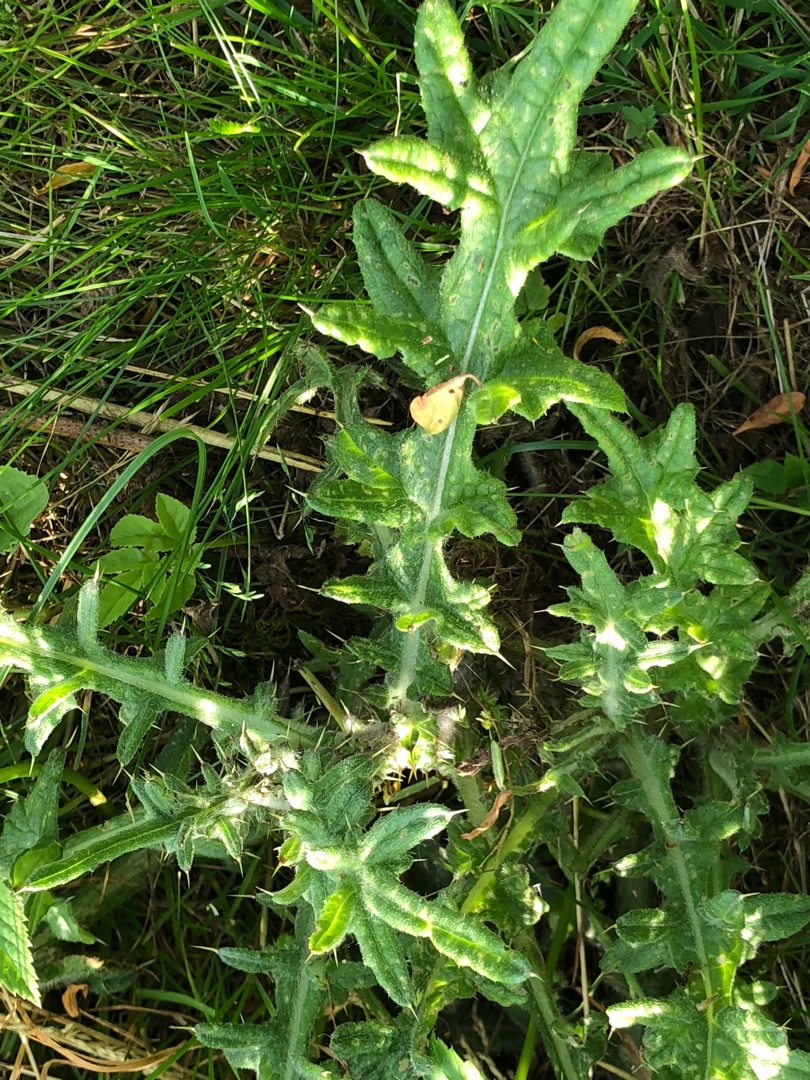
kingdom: Plantae
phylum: Tracheophyta
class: Magnoliopsida
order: Asterales
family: Asteraceae
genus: Cirsium
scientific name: Cirsium vulgare
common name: Horse-tidsel
